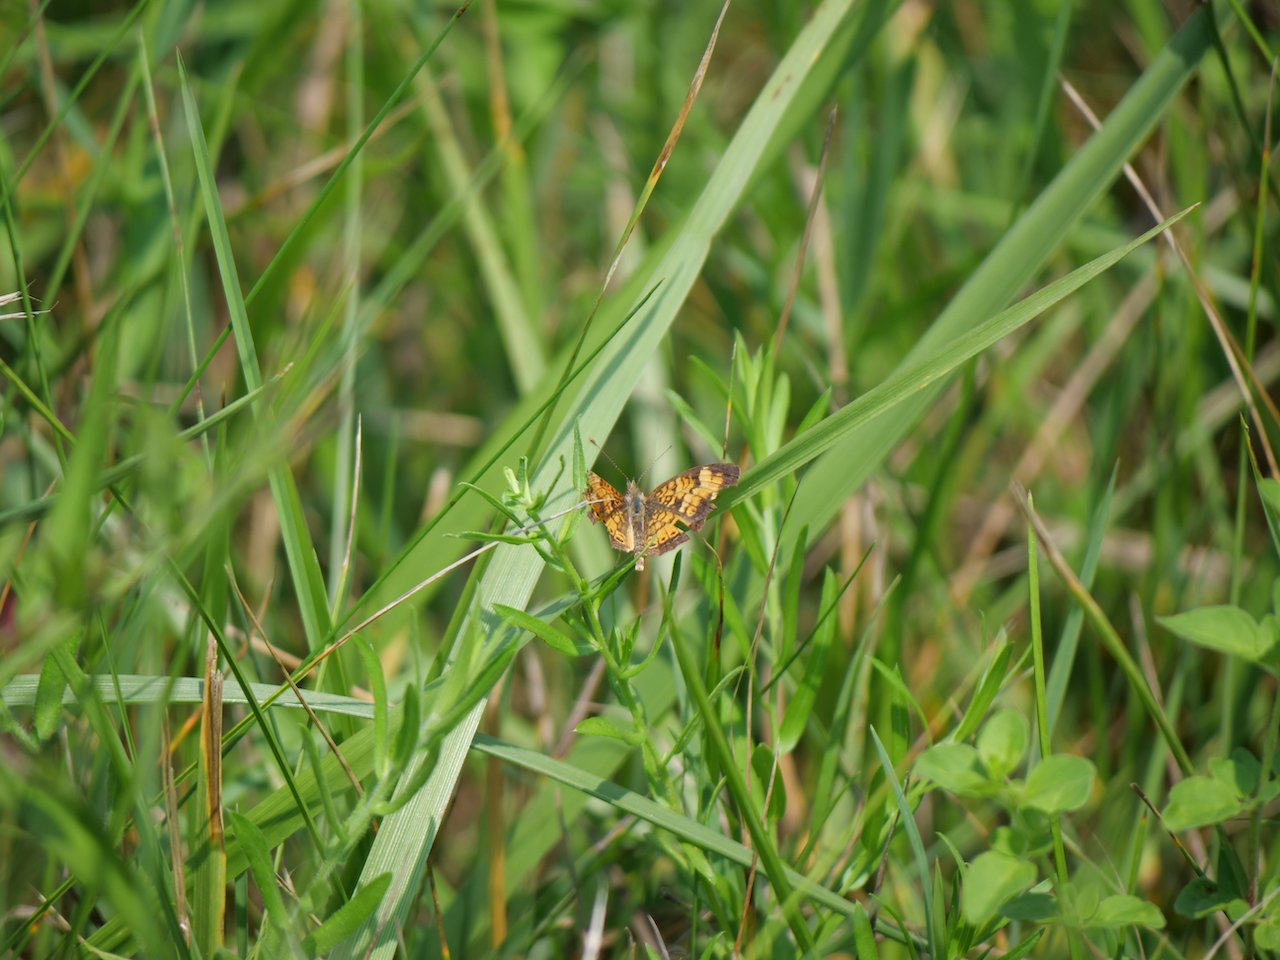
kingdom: Animalia
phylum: Arthropoda
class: Insecta
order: Lepidoptera
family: Nymphalidae
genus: Phyciodes
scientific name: Phyciodes tharos
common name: Northern Crescent
